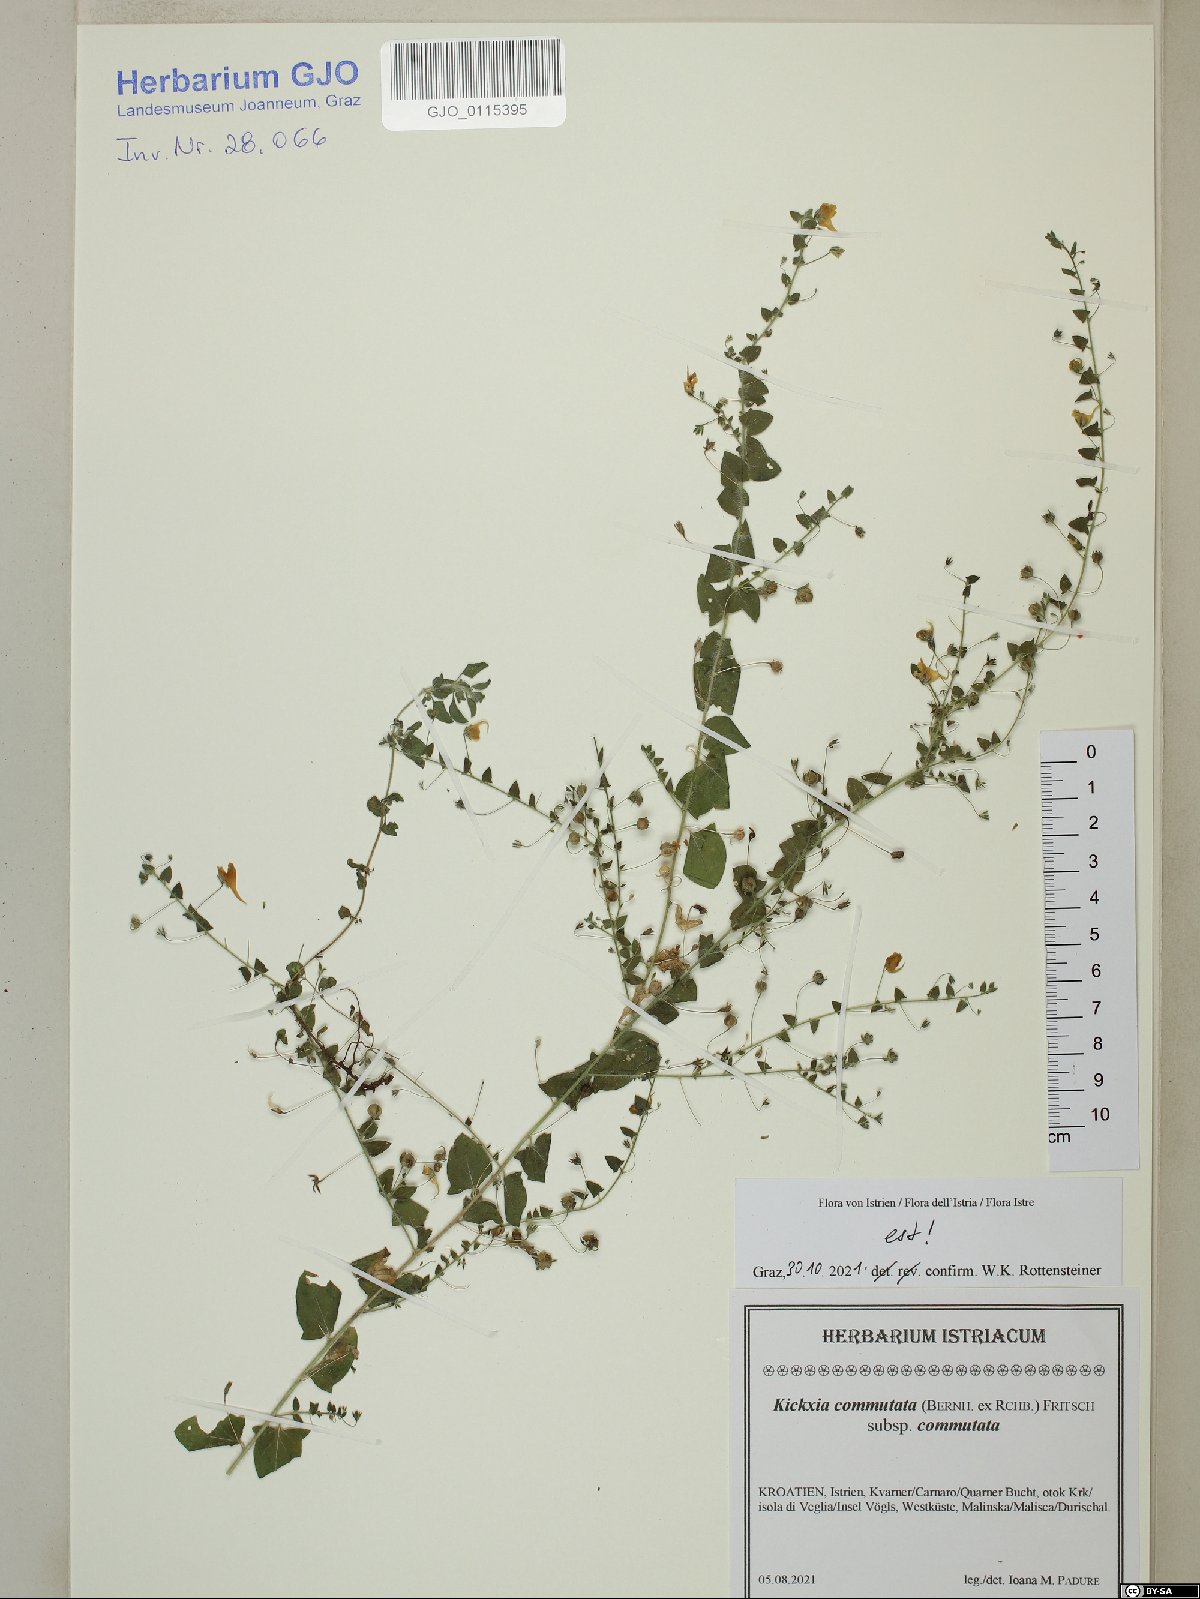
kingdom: Plantae
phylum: Tracheophyta
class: Magnoliopsida
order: Lamiales
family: Plantaginaceae
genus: Kickxia
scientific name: Kickxia commutata
